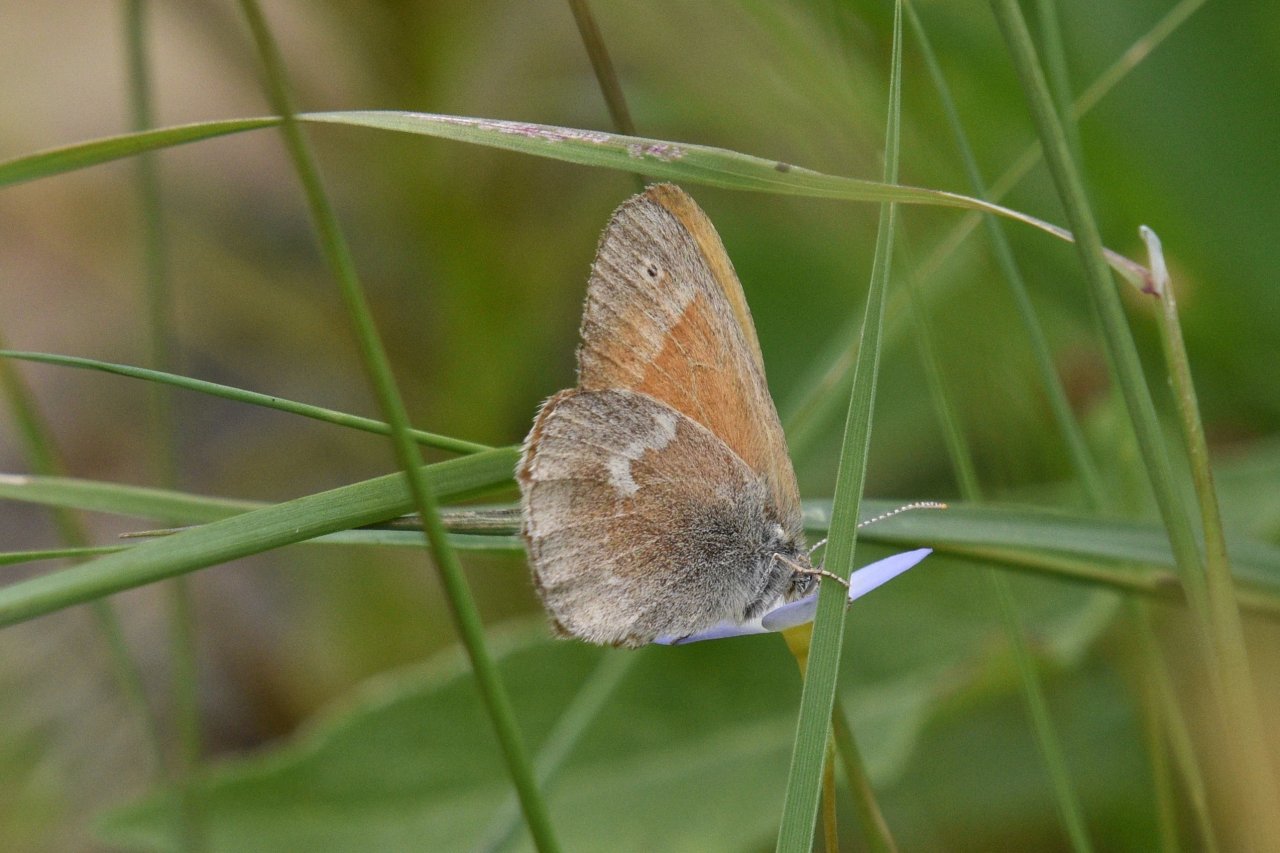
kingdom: Animalia
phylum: Arthropoda
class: Insecta
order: Lepidoptera
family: Nymphalidae
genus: Coenonympha
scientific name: Coenonympha tullia
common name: Large Heath
